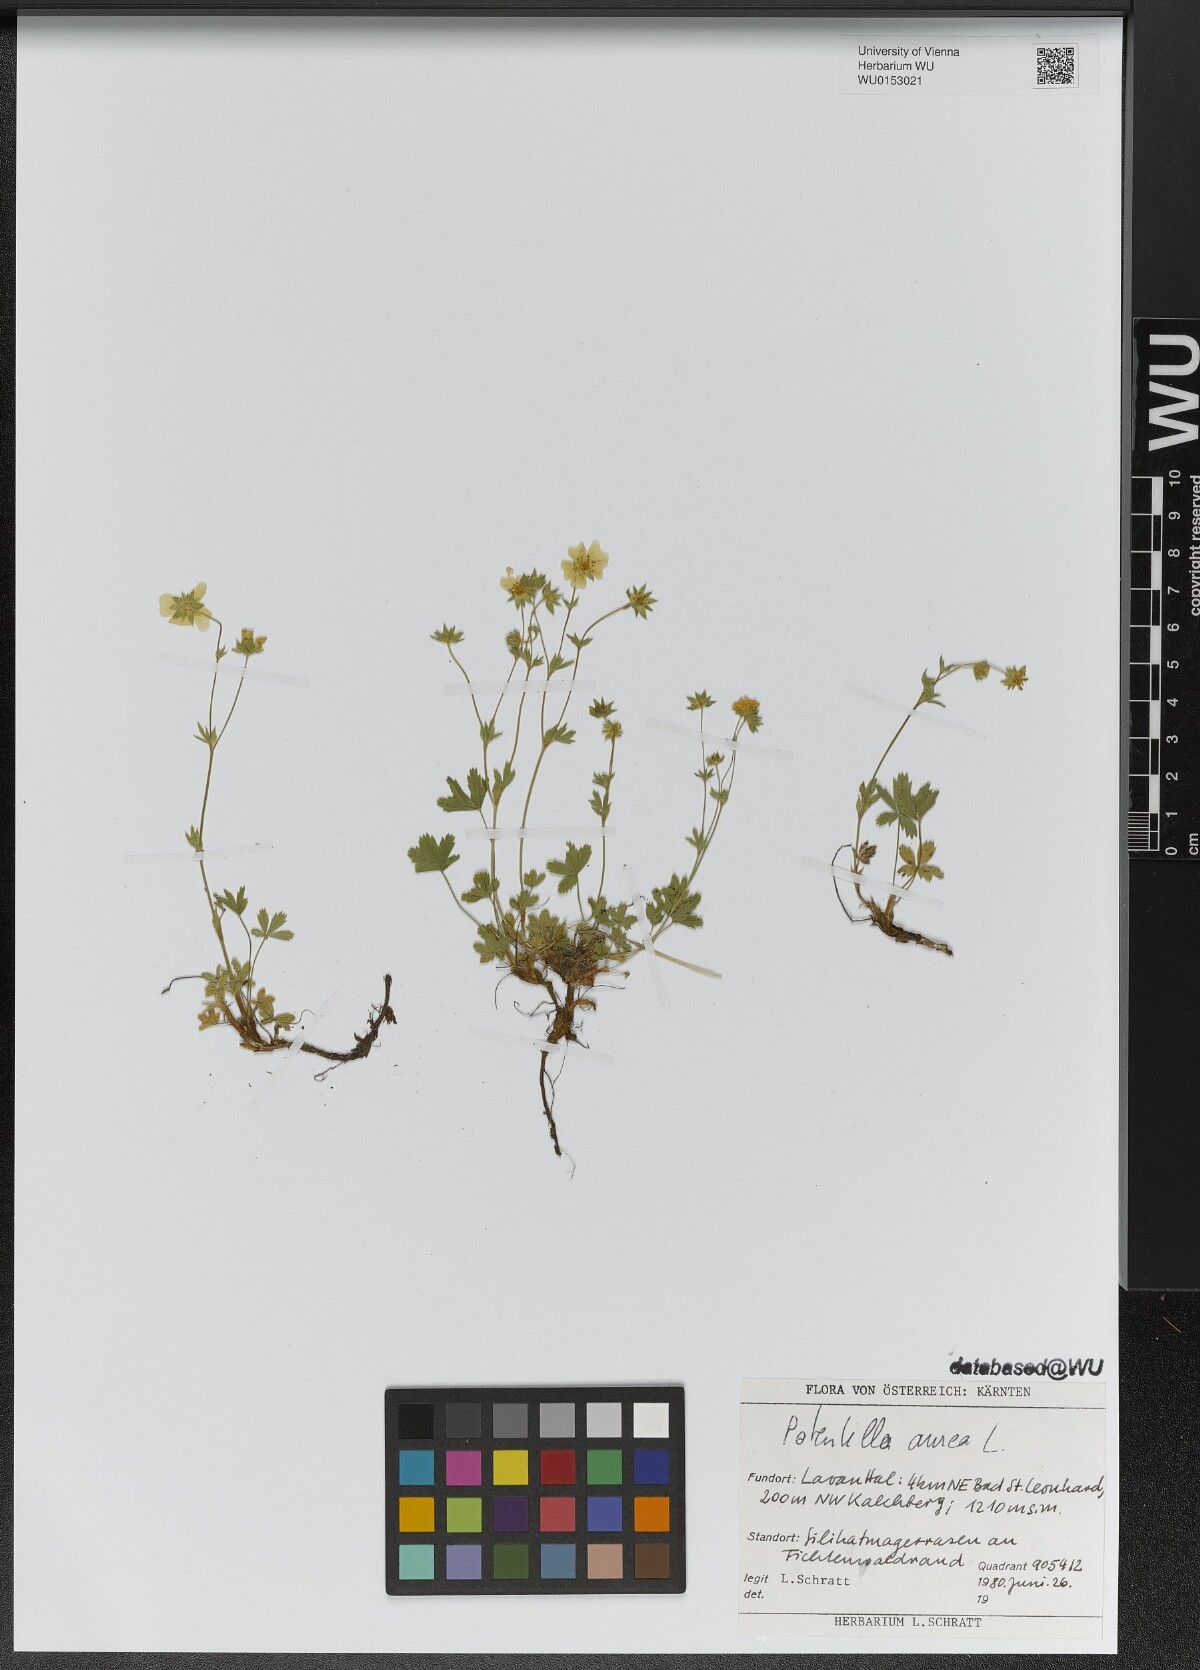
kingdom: Plantae
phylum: Tracheophyta
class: Magnoliopsida
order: Rosales
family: Rosaceae
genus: Potentilla
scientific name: Potentilla aurea
